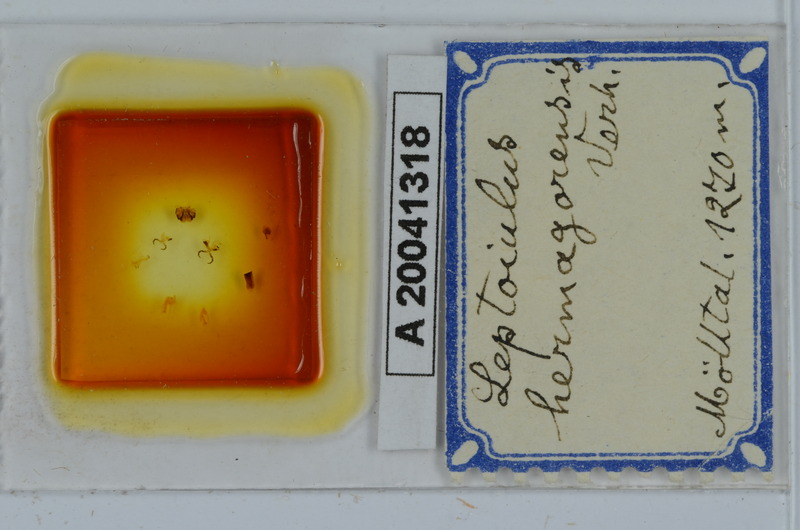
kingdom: Animalia
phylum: Arthropoda
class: Diplopoda
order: Julida
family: Julidae
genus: Leptoiulus
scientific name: Leptoiulus vagabundus
